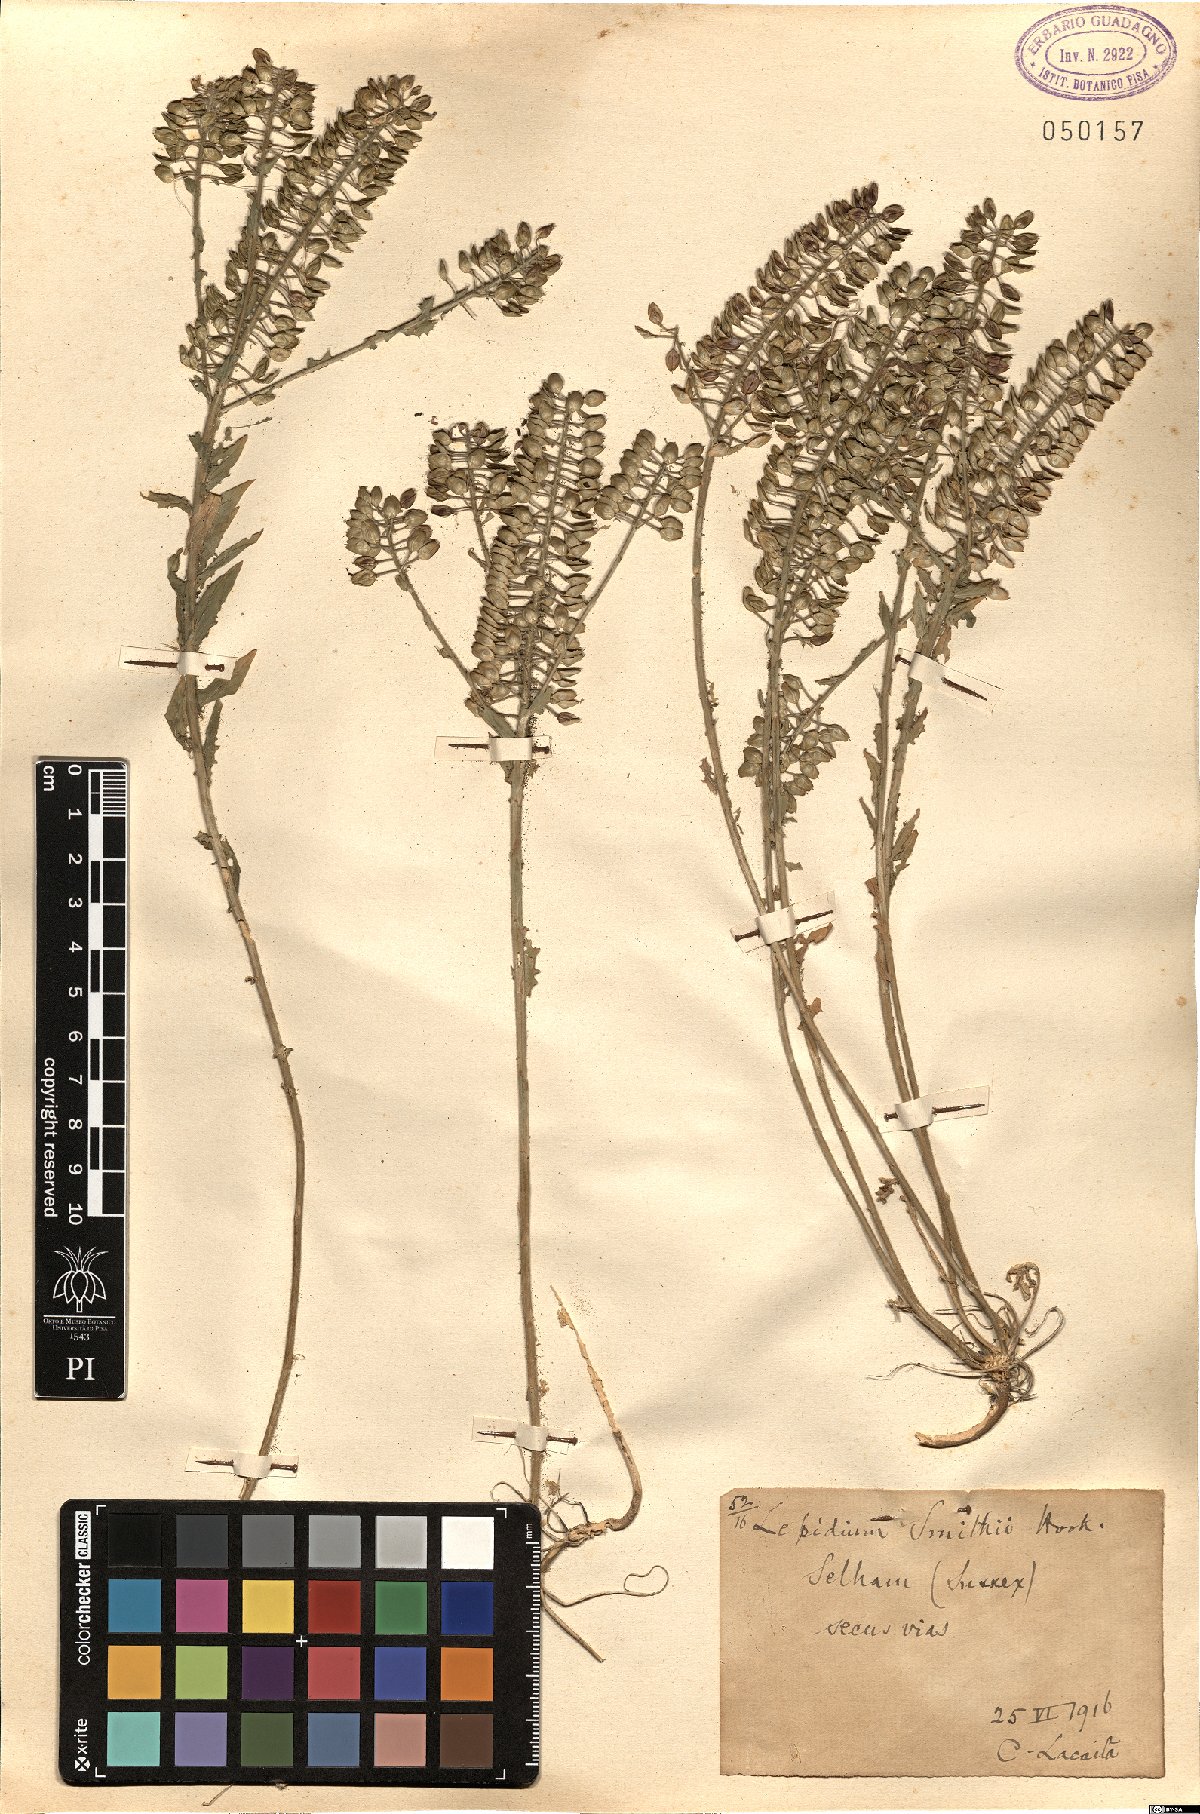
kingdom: Plantae
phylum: Tracheophyta
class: Magnoliopsida
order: Brassicales
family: Brassicaceae
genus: Lepidium
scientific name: Lepidium heterophyllum
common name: Smith's pepperwort
